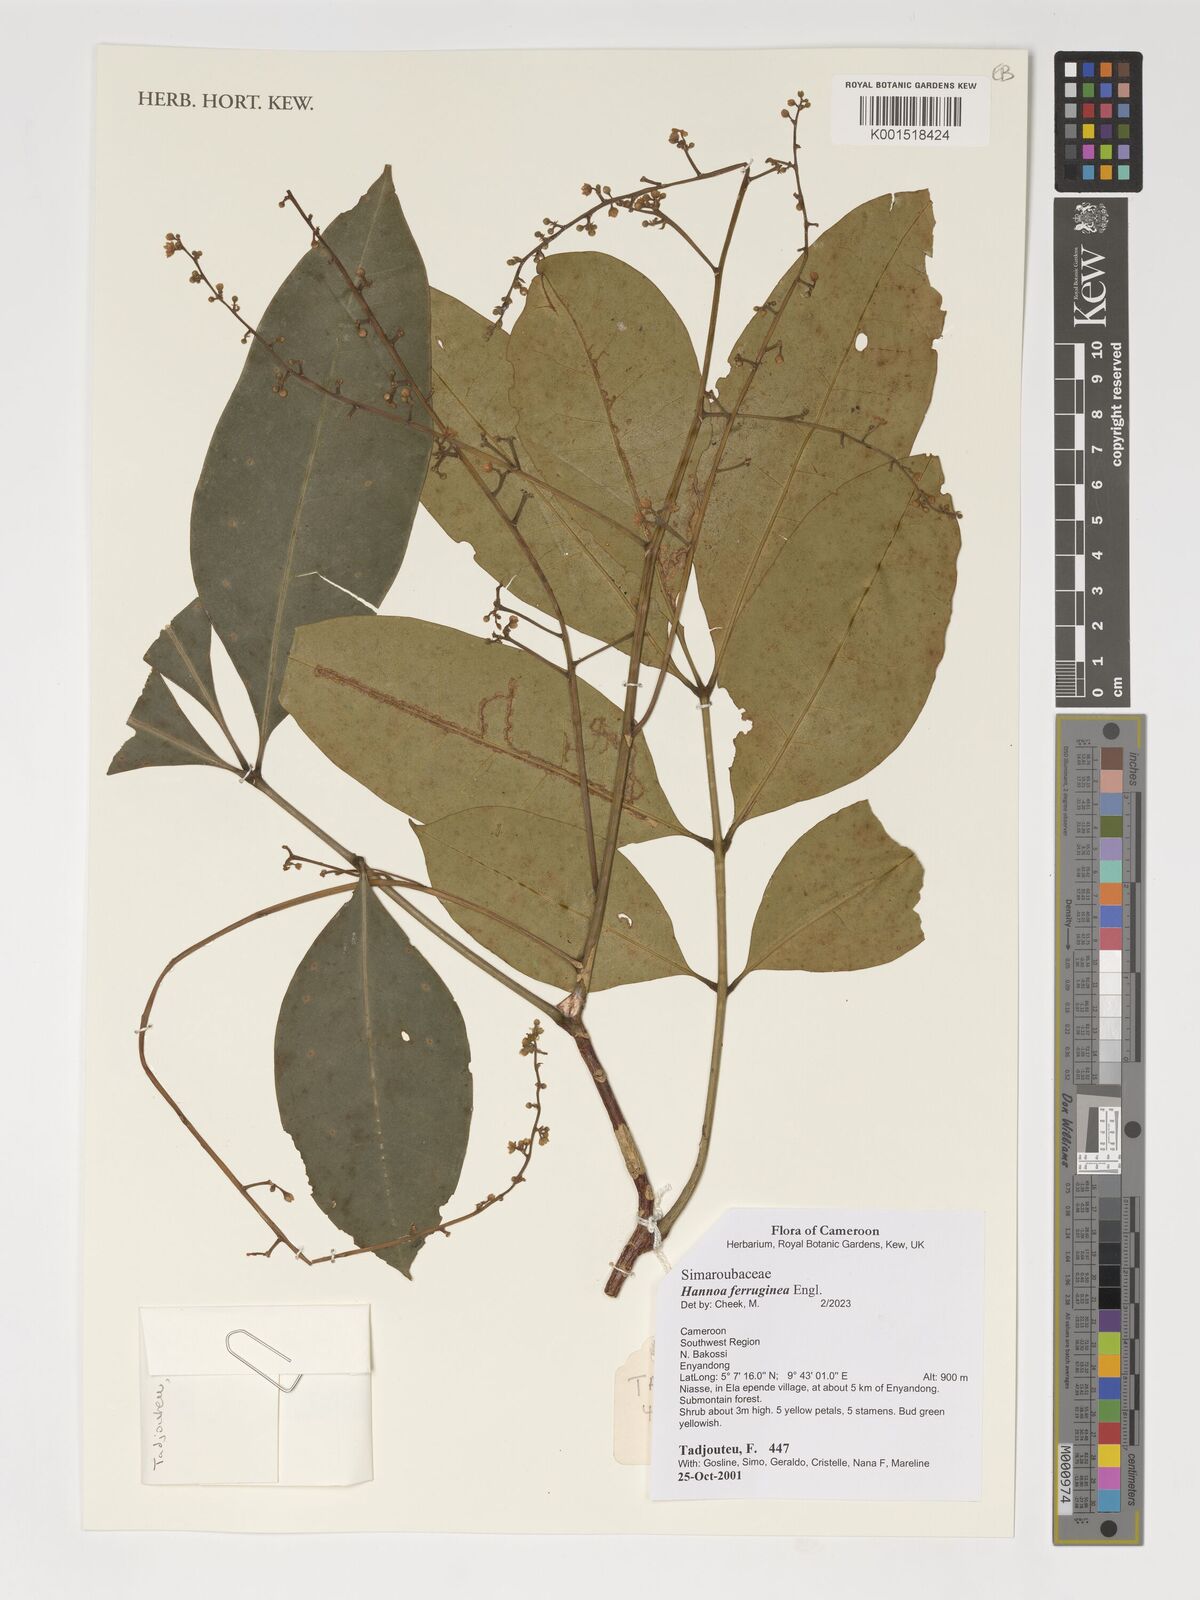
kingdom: Plantae
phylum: Tracheophyta
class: Magnoliopsida
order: Sapindales
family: Simaroubaceae
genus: Hannoa
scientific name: Hannoa ferruginea
